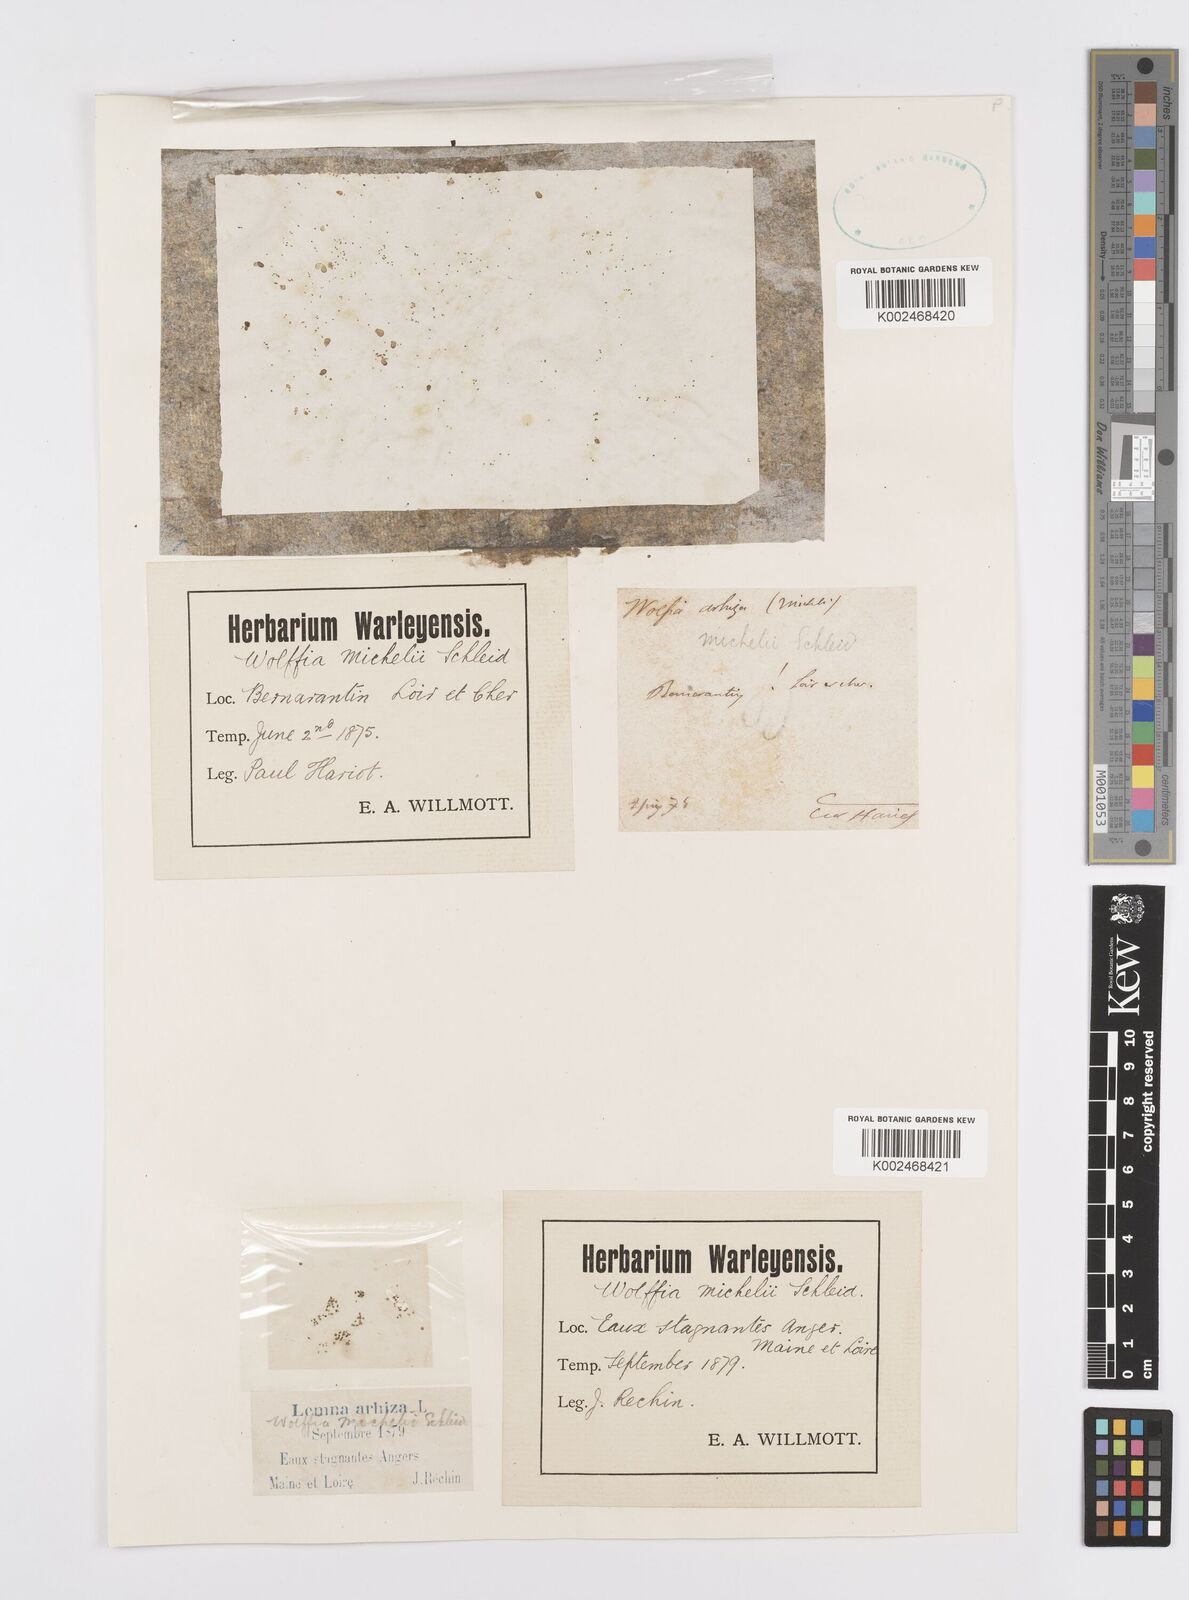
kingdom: Plantae
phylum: Tracheophyta
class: Liliopsida
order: Alismatales
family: Araceae
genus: Wolffia
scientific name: Wolffia arrhiza
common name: Rootless duckweed
